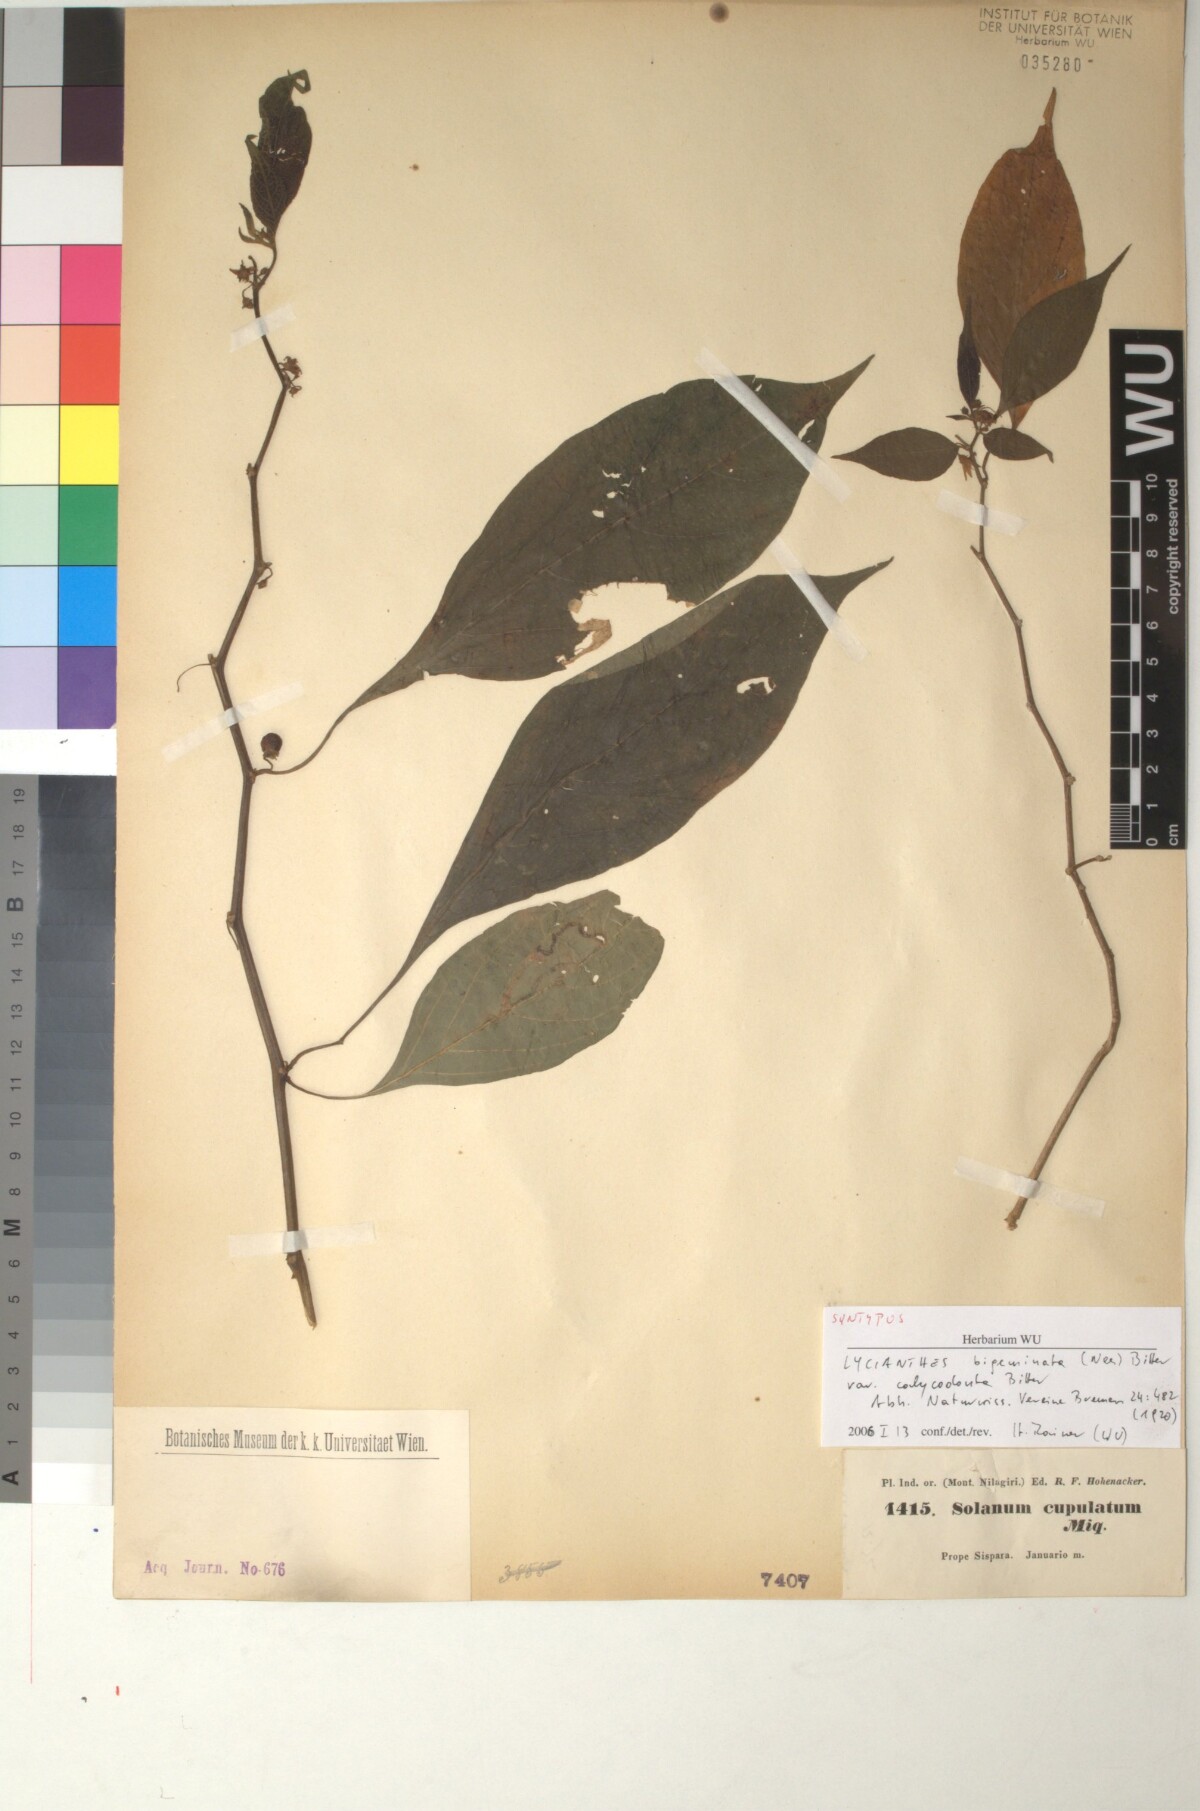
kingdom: Plantae
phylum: Tracheophyta
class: Magnoliopsida
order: Solanales
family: Solanaceae
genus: Lycianthes
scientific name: Lycianthes laevis
